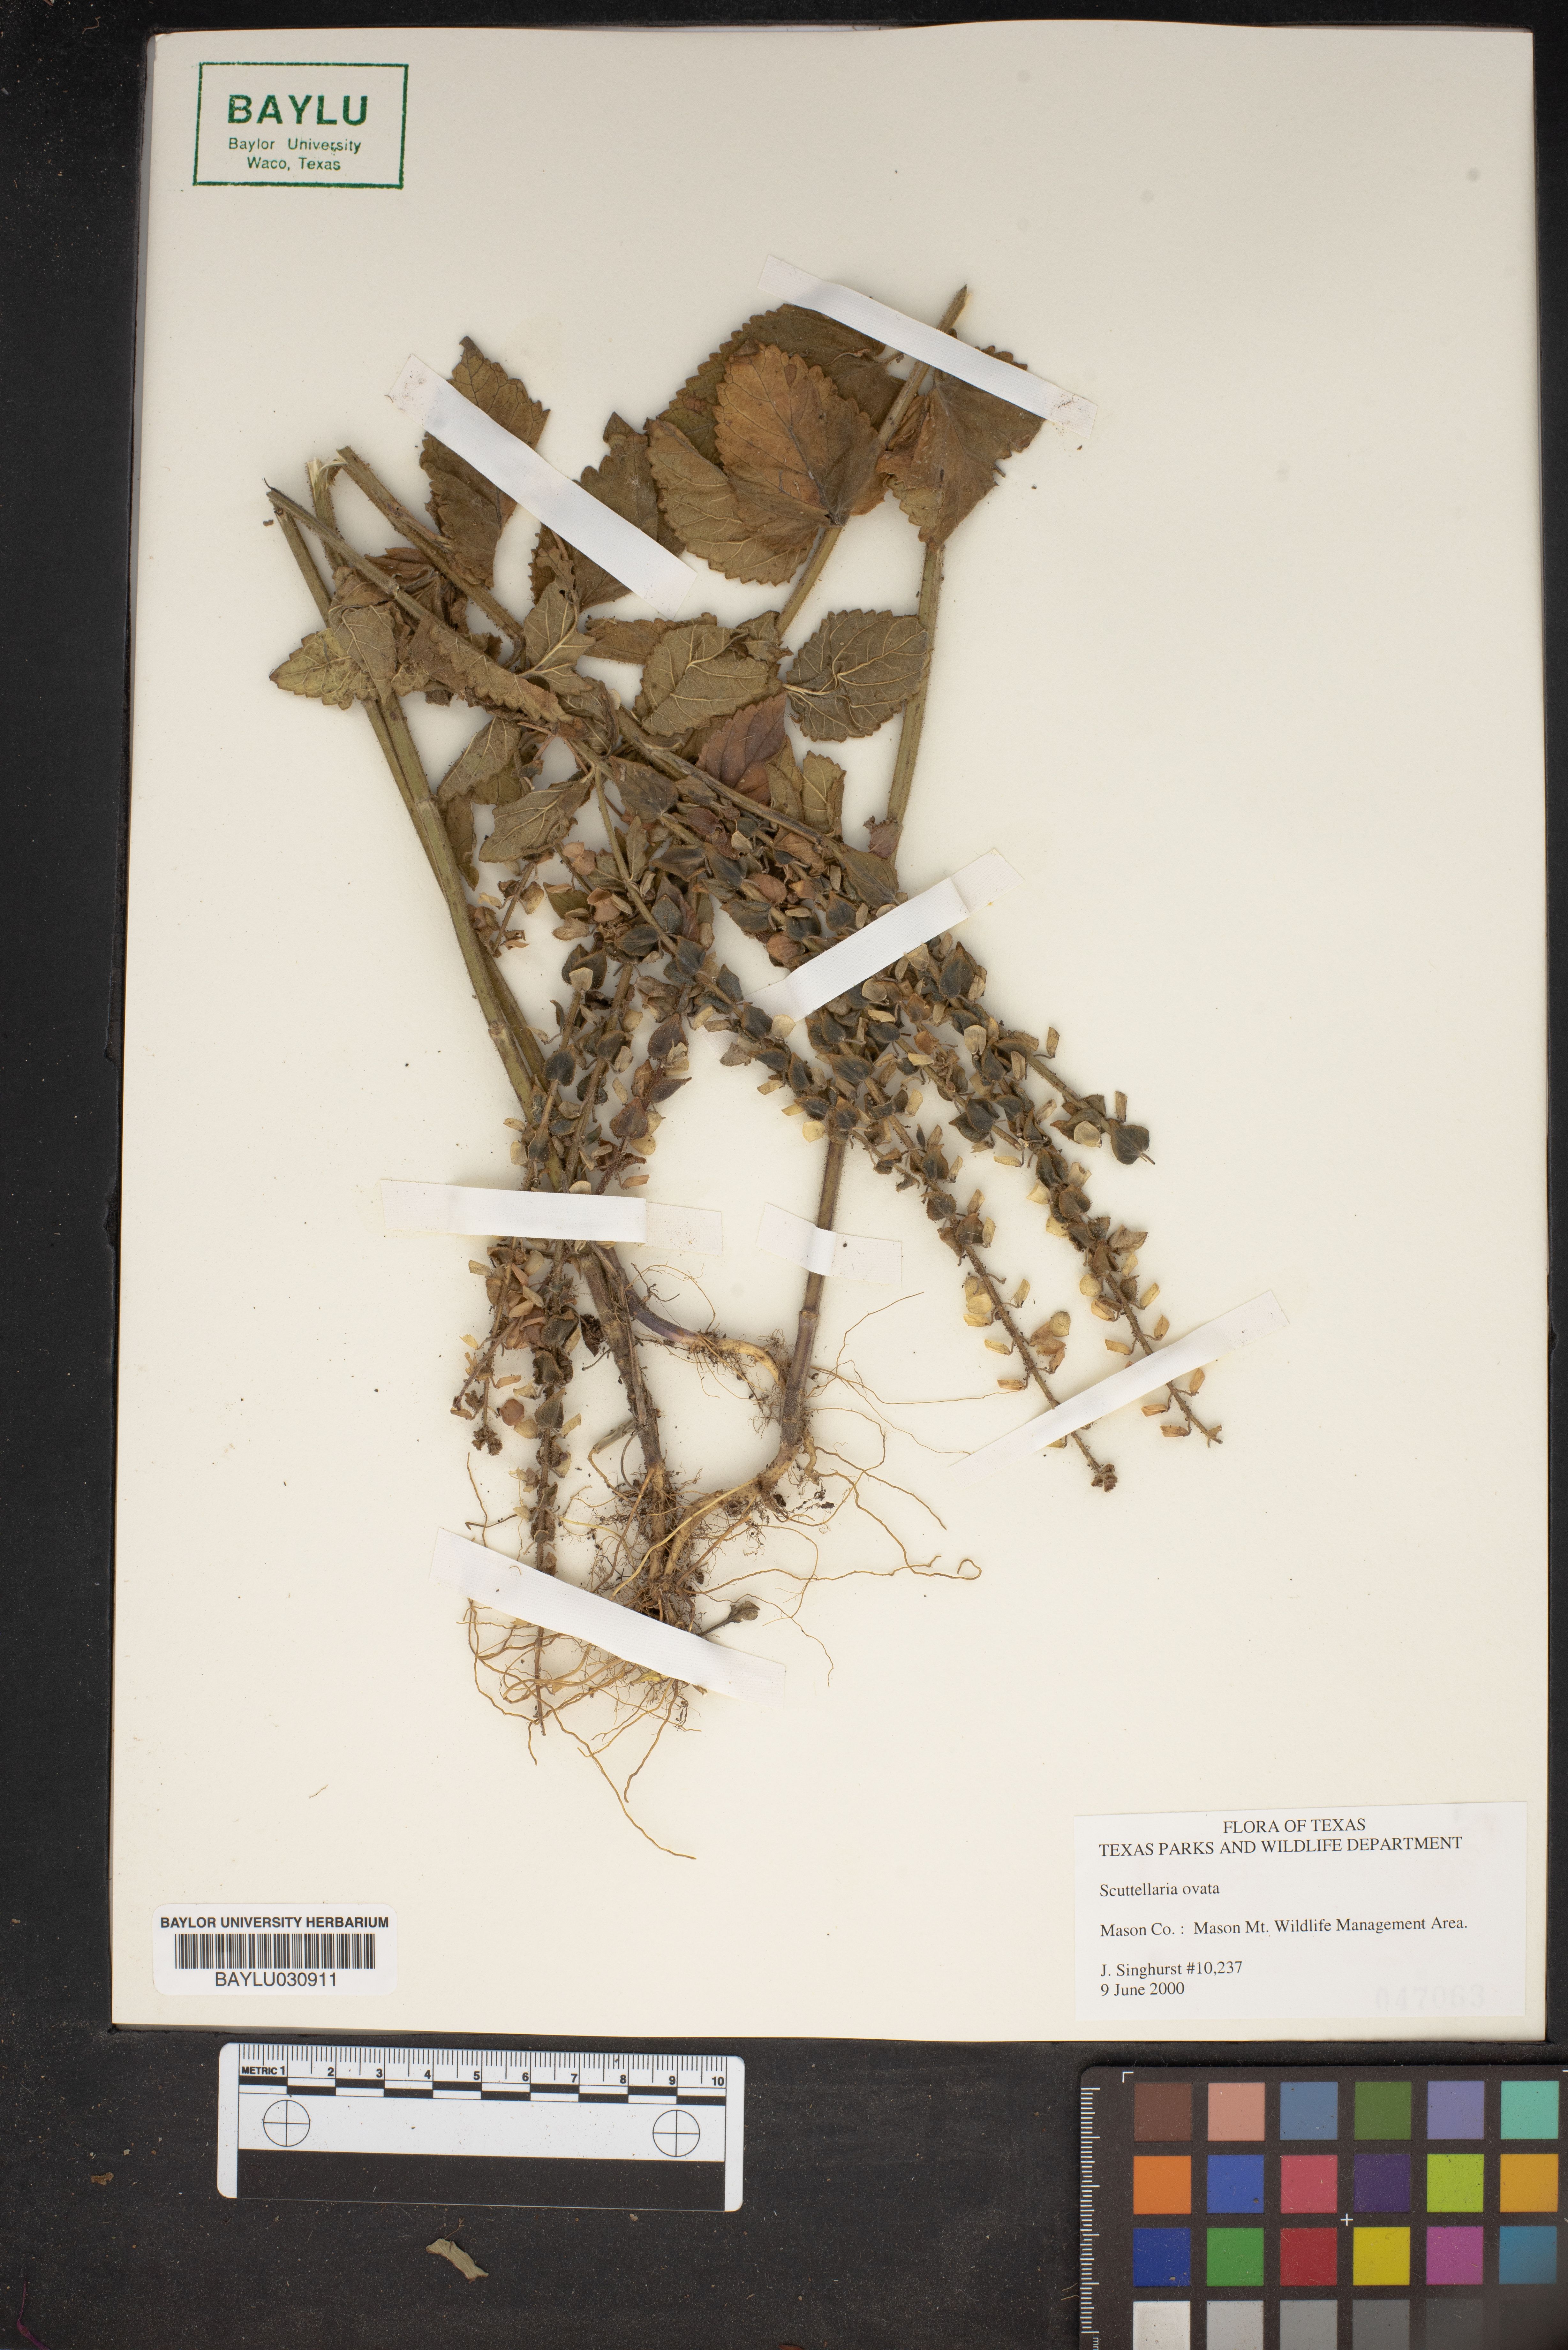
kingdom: Plantae
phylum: Tracheophyta
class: Magnoliopsida
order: Lamiales
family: Lamiaceae
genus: Scutellaria
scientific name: Scutellaria ovata
